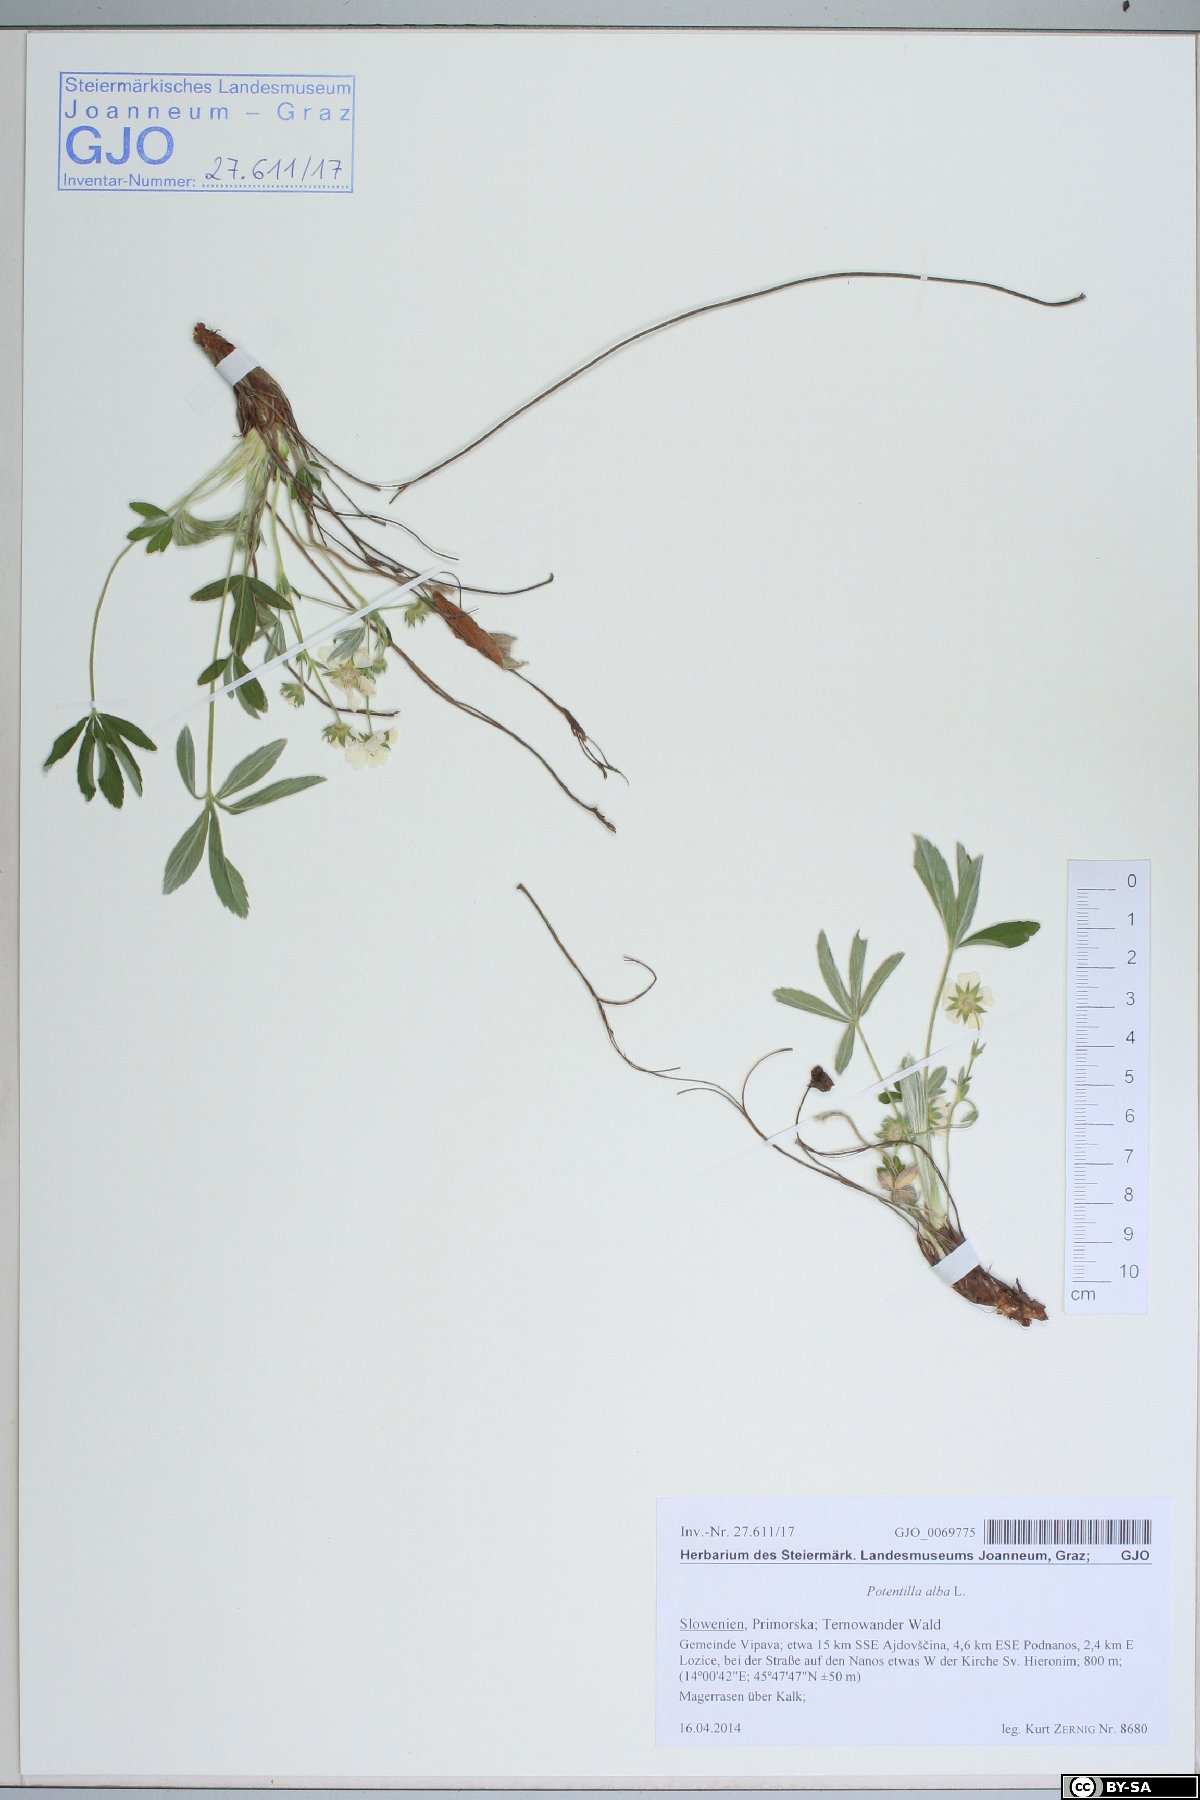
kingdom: Plantae
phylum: Tracheophyta
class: Magnoliopsida
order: Rosales
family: Rosaceae
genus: Potentilla
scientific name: Potentilla alba
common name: White cinquefoil
